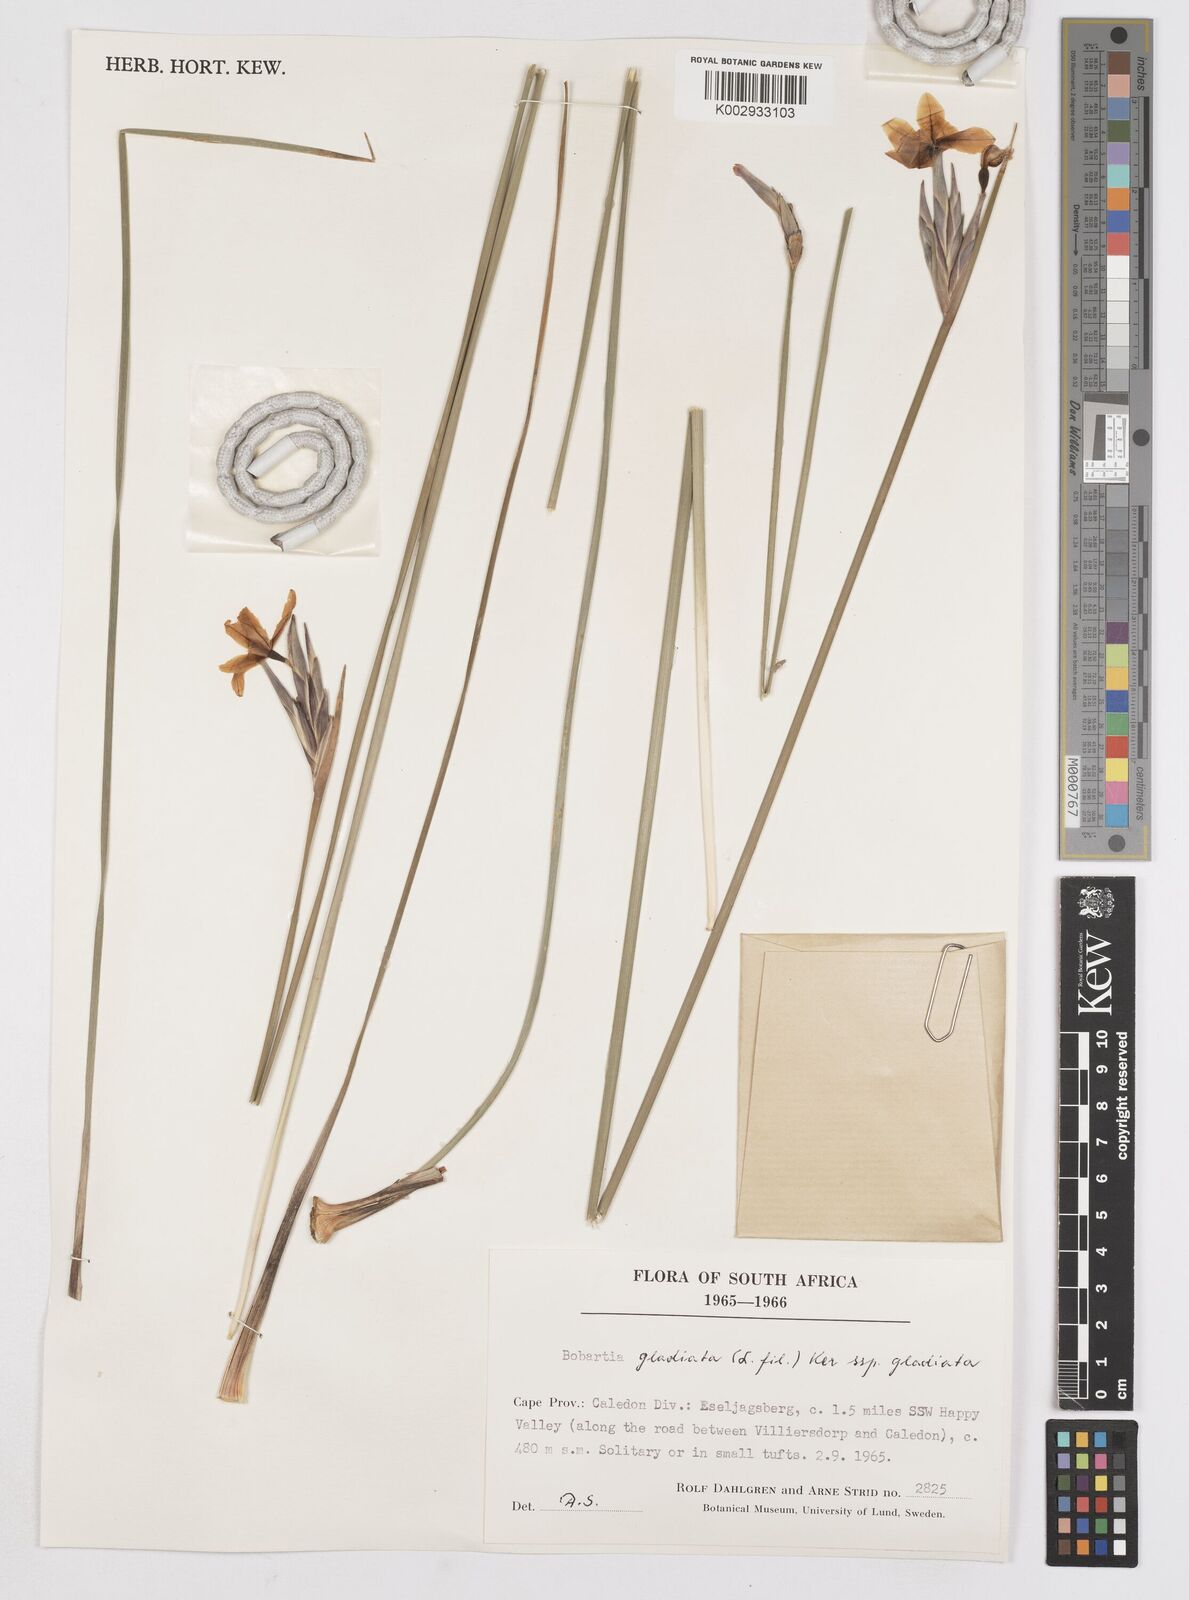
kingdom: Plantae
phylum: Tracheophyta
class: Liliopsida
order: Asparagales
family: Iridaceae
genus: Bobartia
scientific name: Bobartia gladiata
